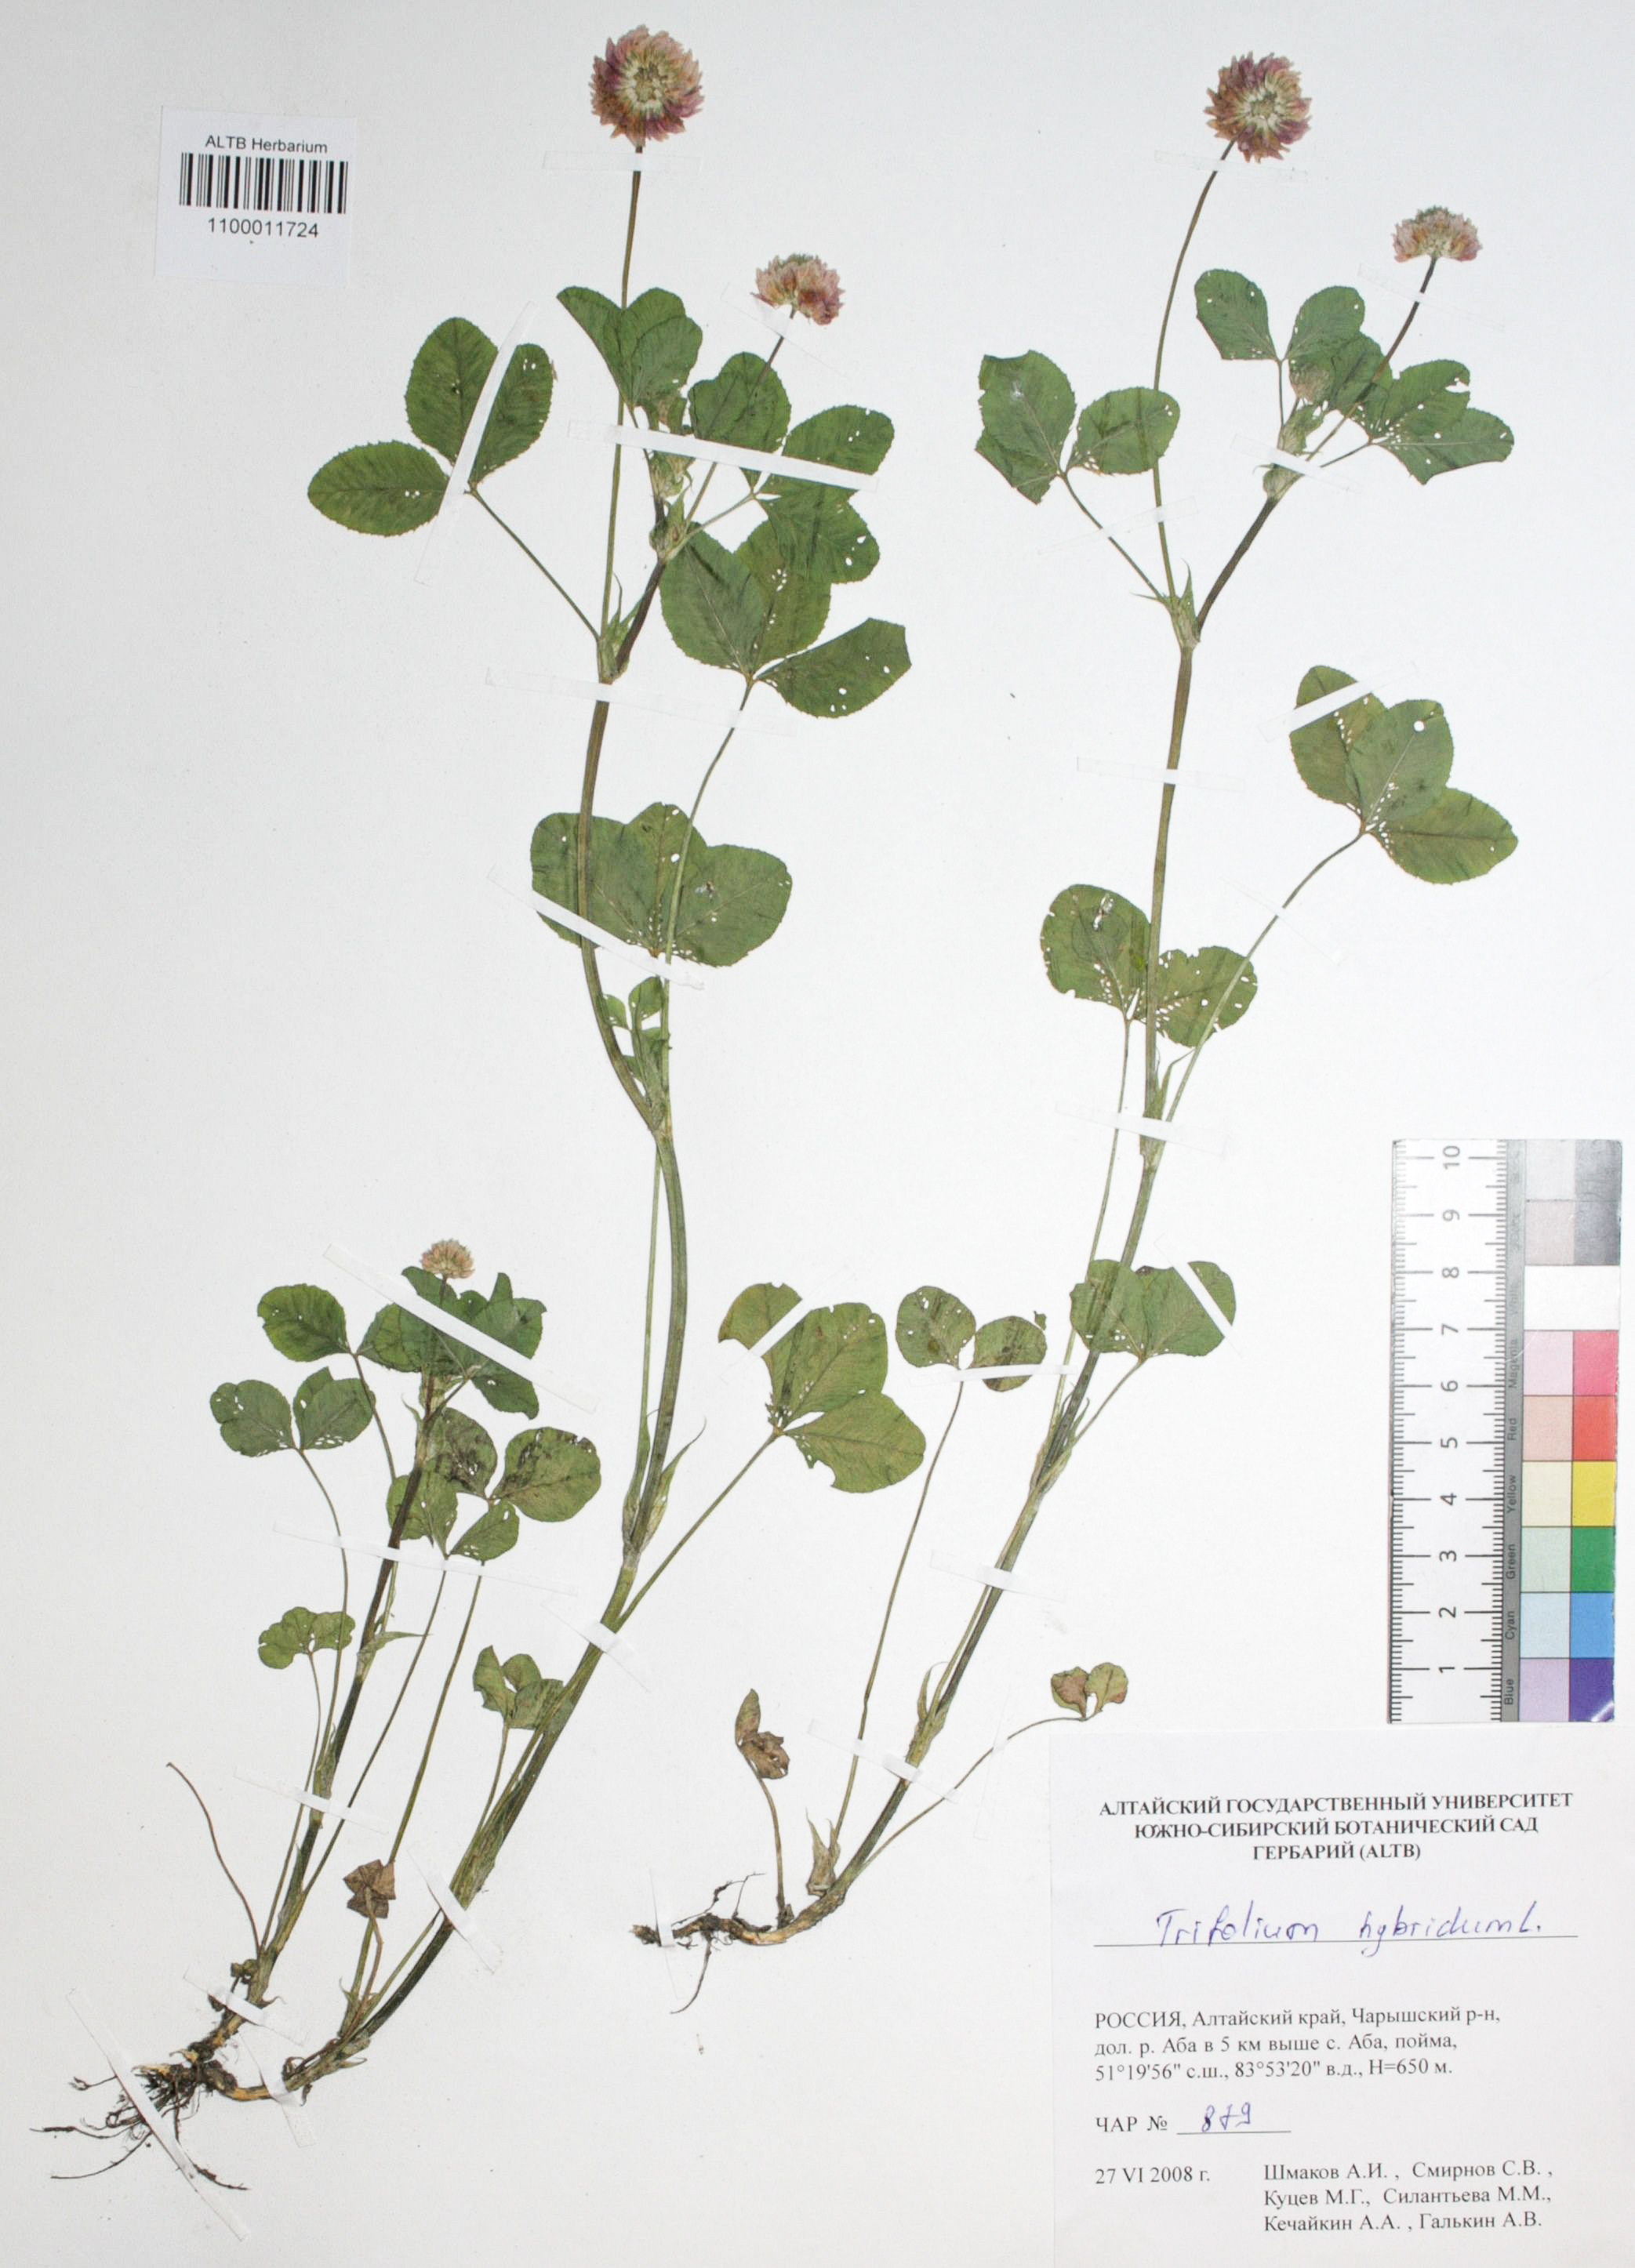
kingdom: Plantae
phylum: Tracheophyta
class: Magnoliopsida
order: Fabales
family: Fabaceae
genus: Trifolium
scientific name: Trifolium hybridum
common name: Alsike clover
